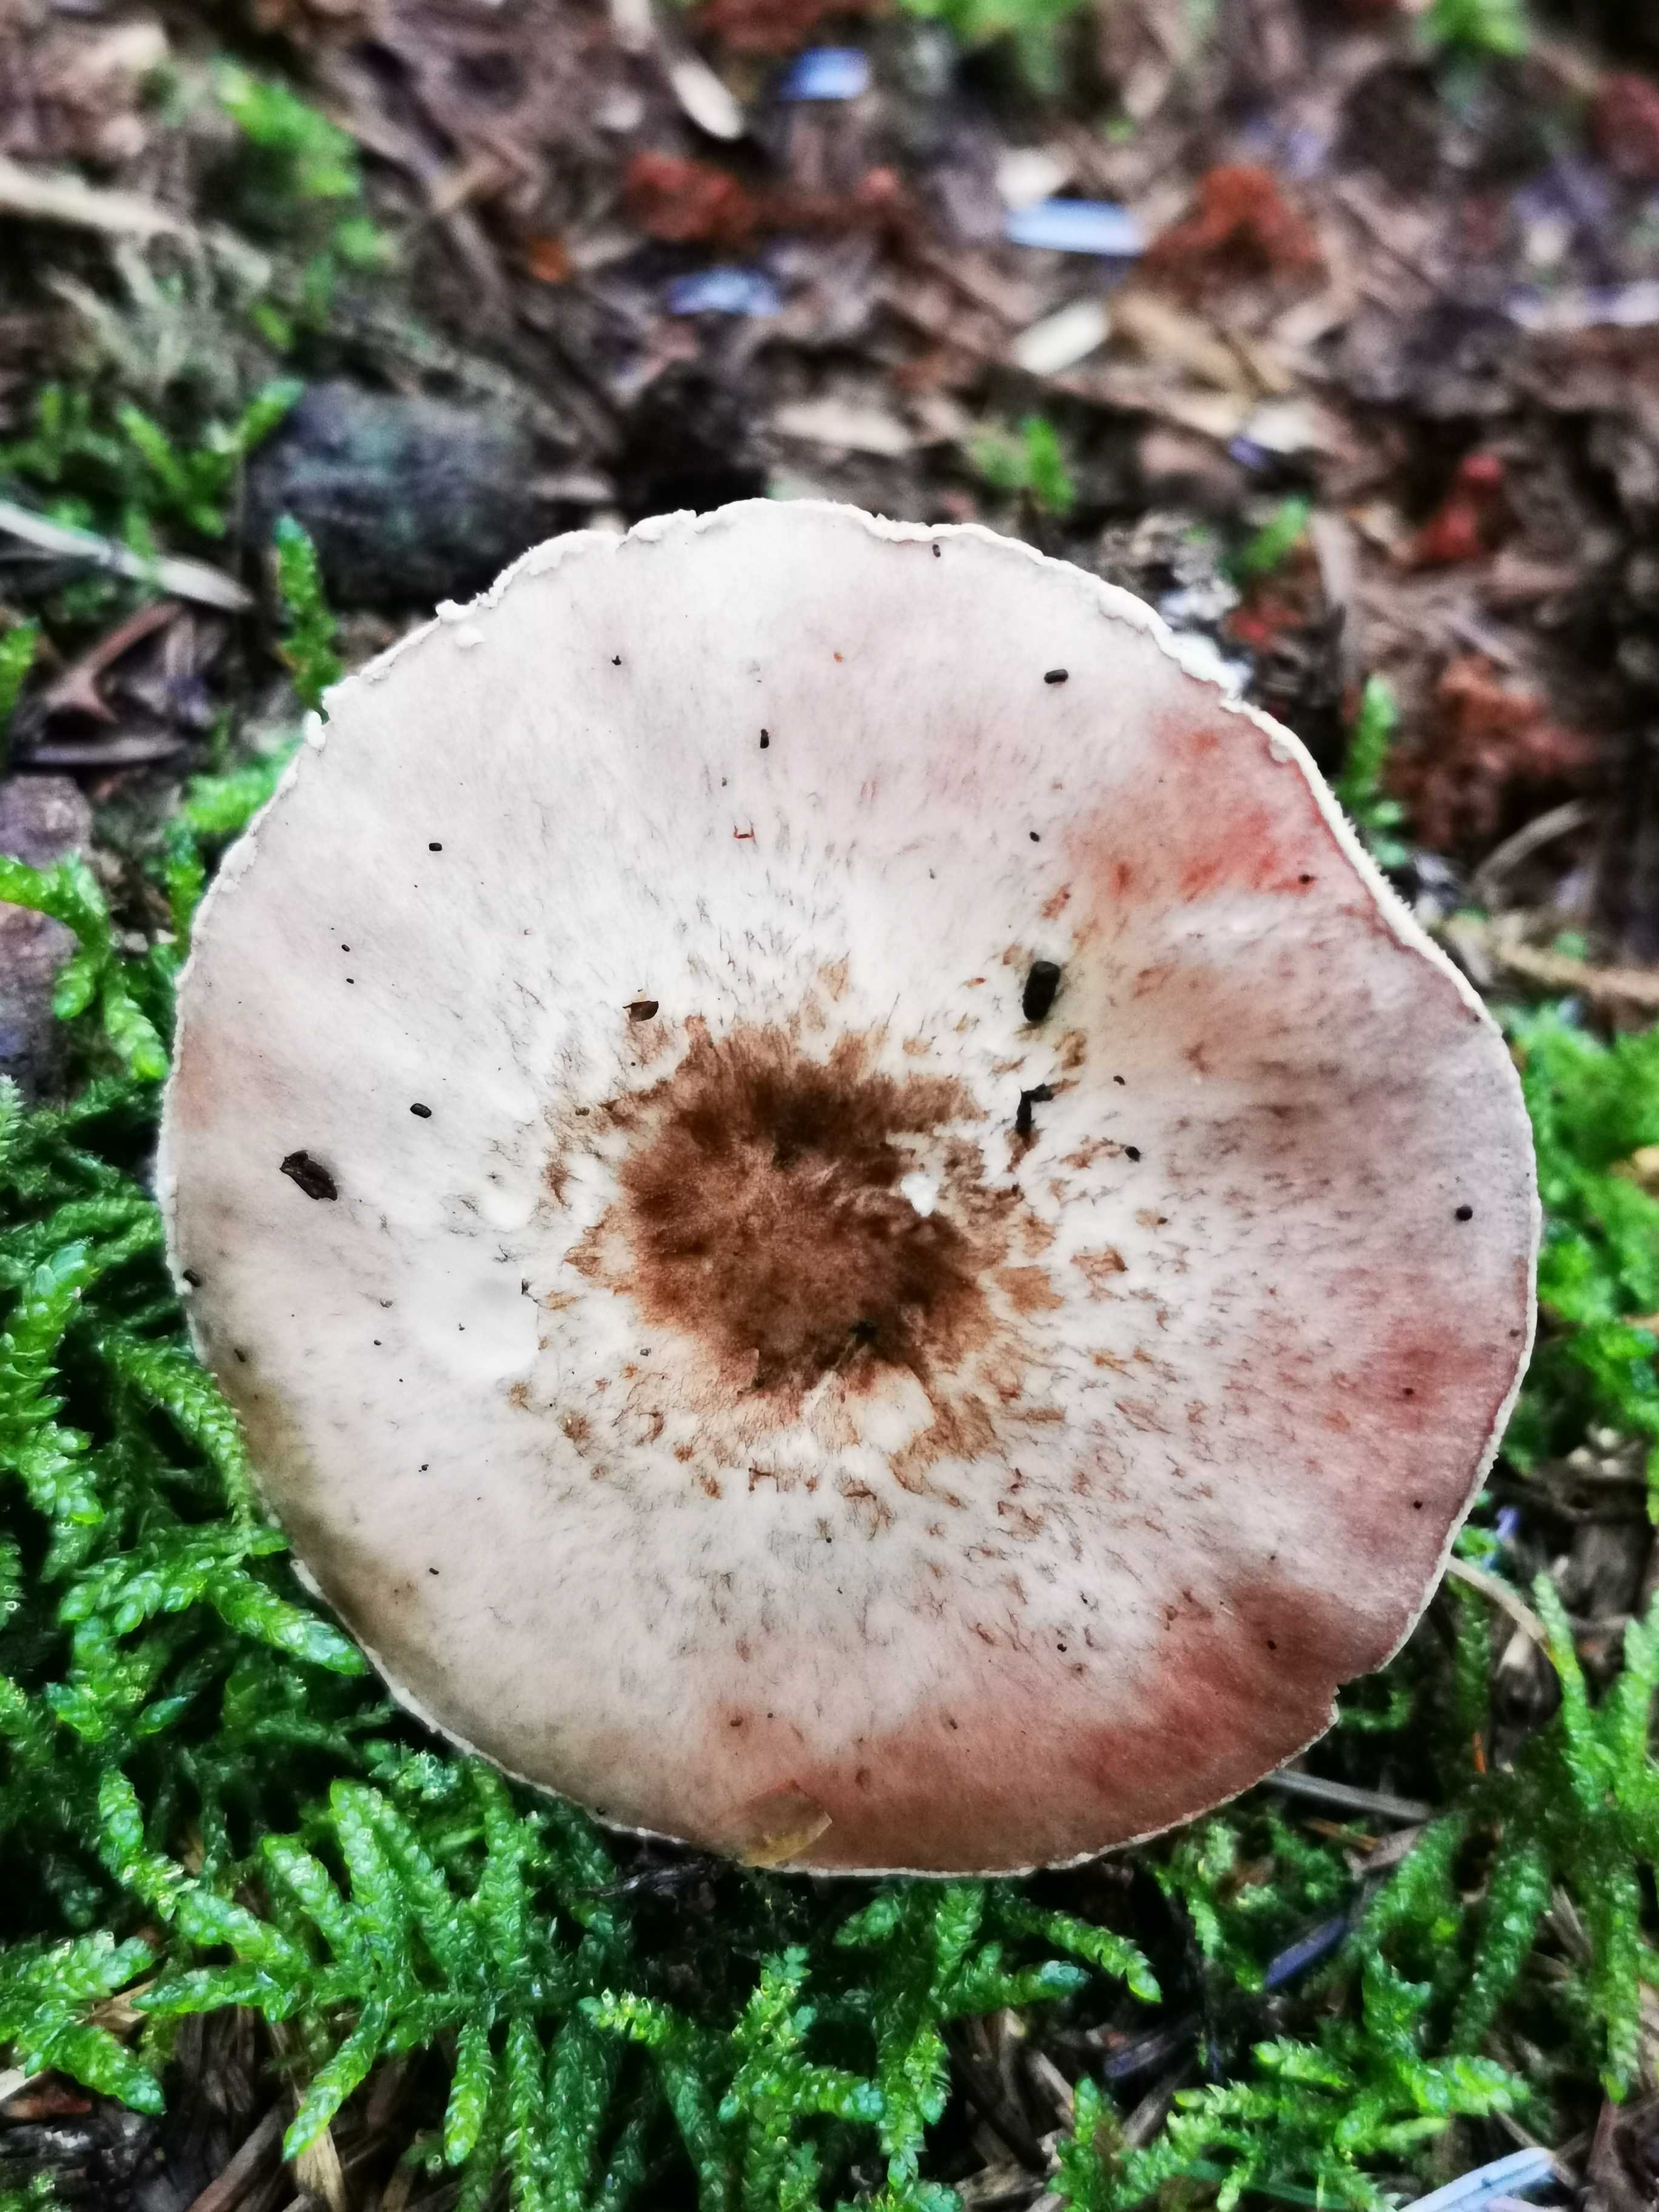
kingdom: Fungi
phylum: Basidiomycota
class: Agaricomycetes
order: Agaricales
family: Agaricaceae
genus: Agaricus
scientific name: Agaricus
